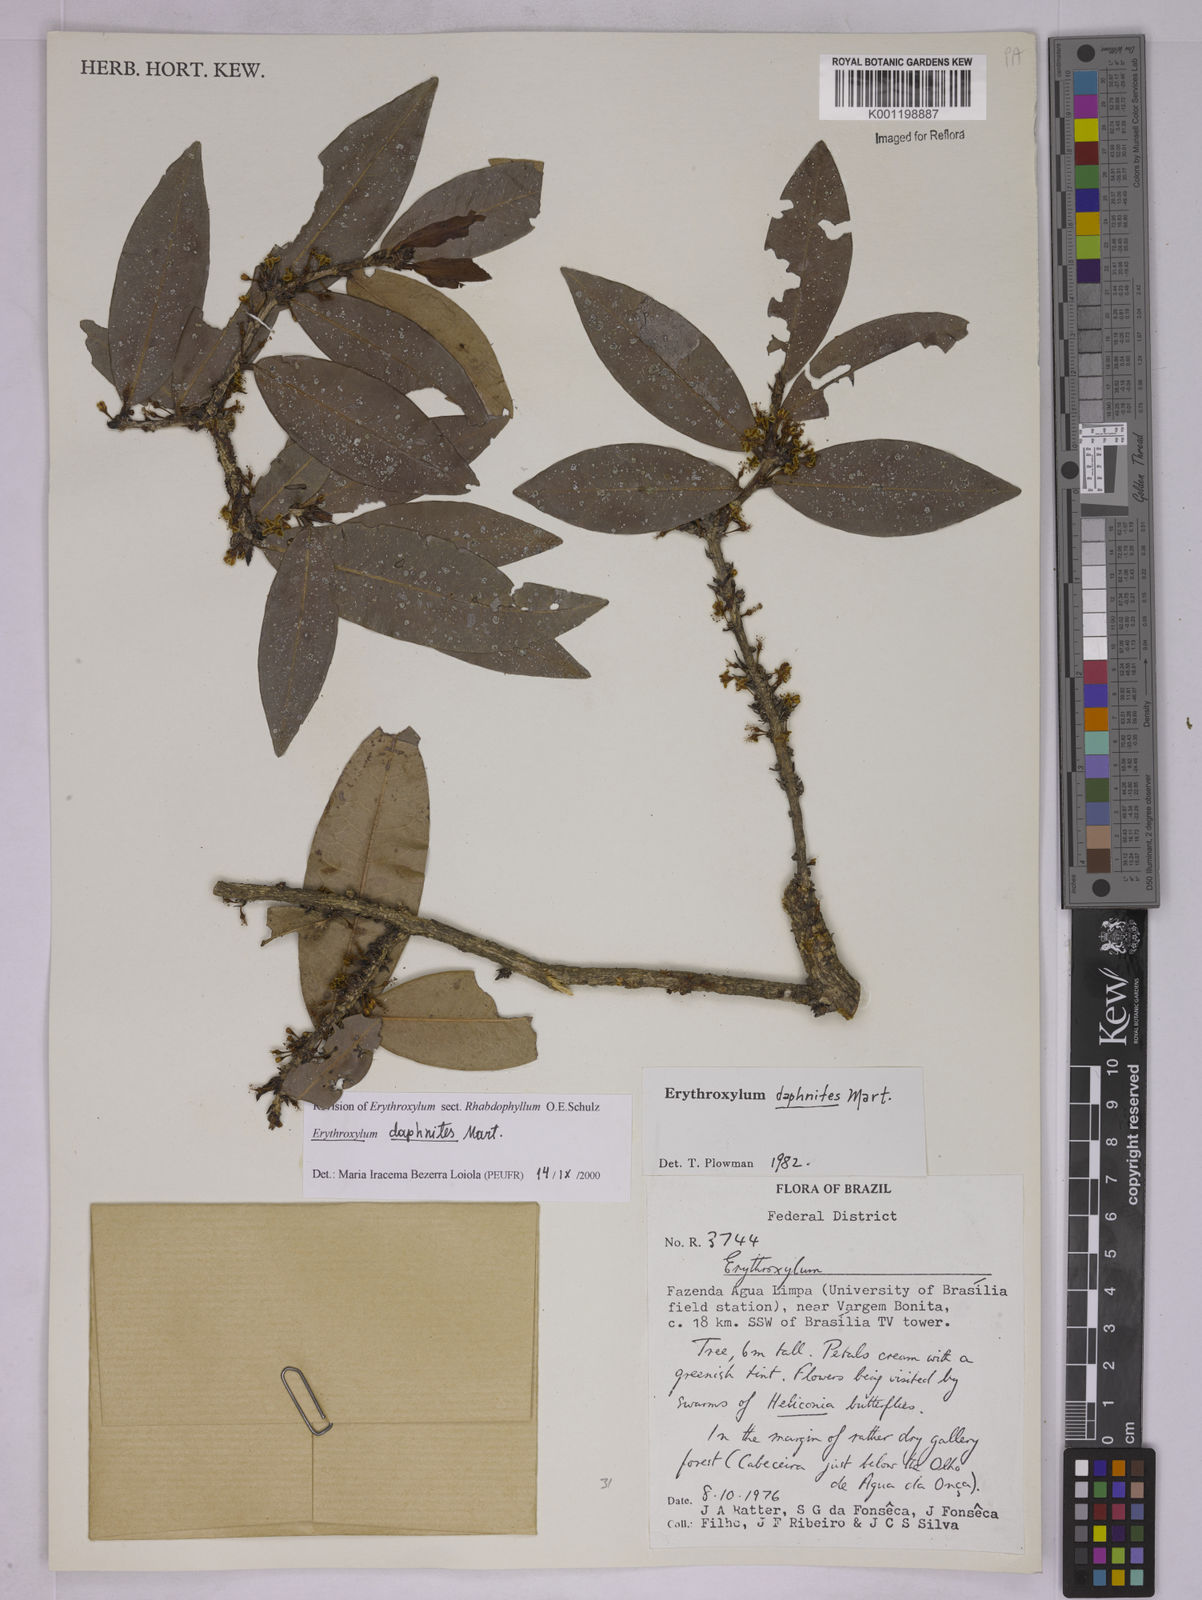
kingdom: Plantae
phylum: Tracheophyta
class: Magnoliopsida
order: Malpighiales
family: Erythroxylaceae
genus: Erythroxylum
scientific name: Erythroxylum daphnites
